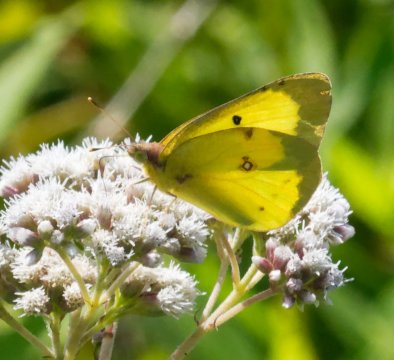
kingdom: Animalia
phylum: Arthropoda
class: Insecta
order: Lepidoptera
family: Pieridae
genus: Colias
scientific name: Colias philodice
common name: Clouded Sulphur
